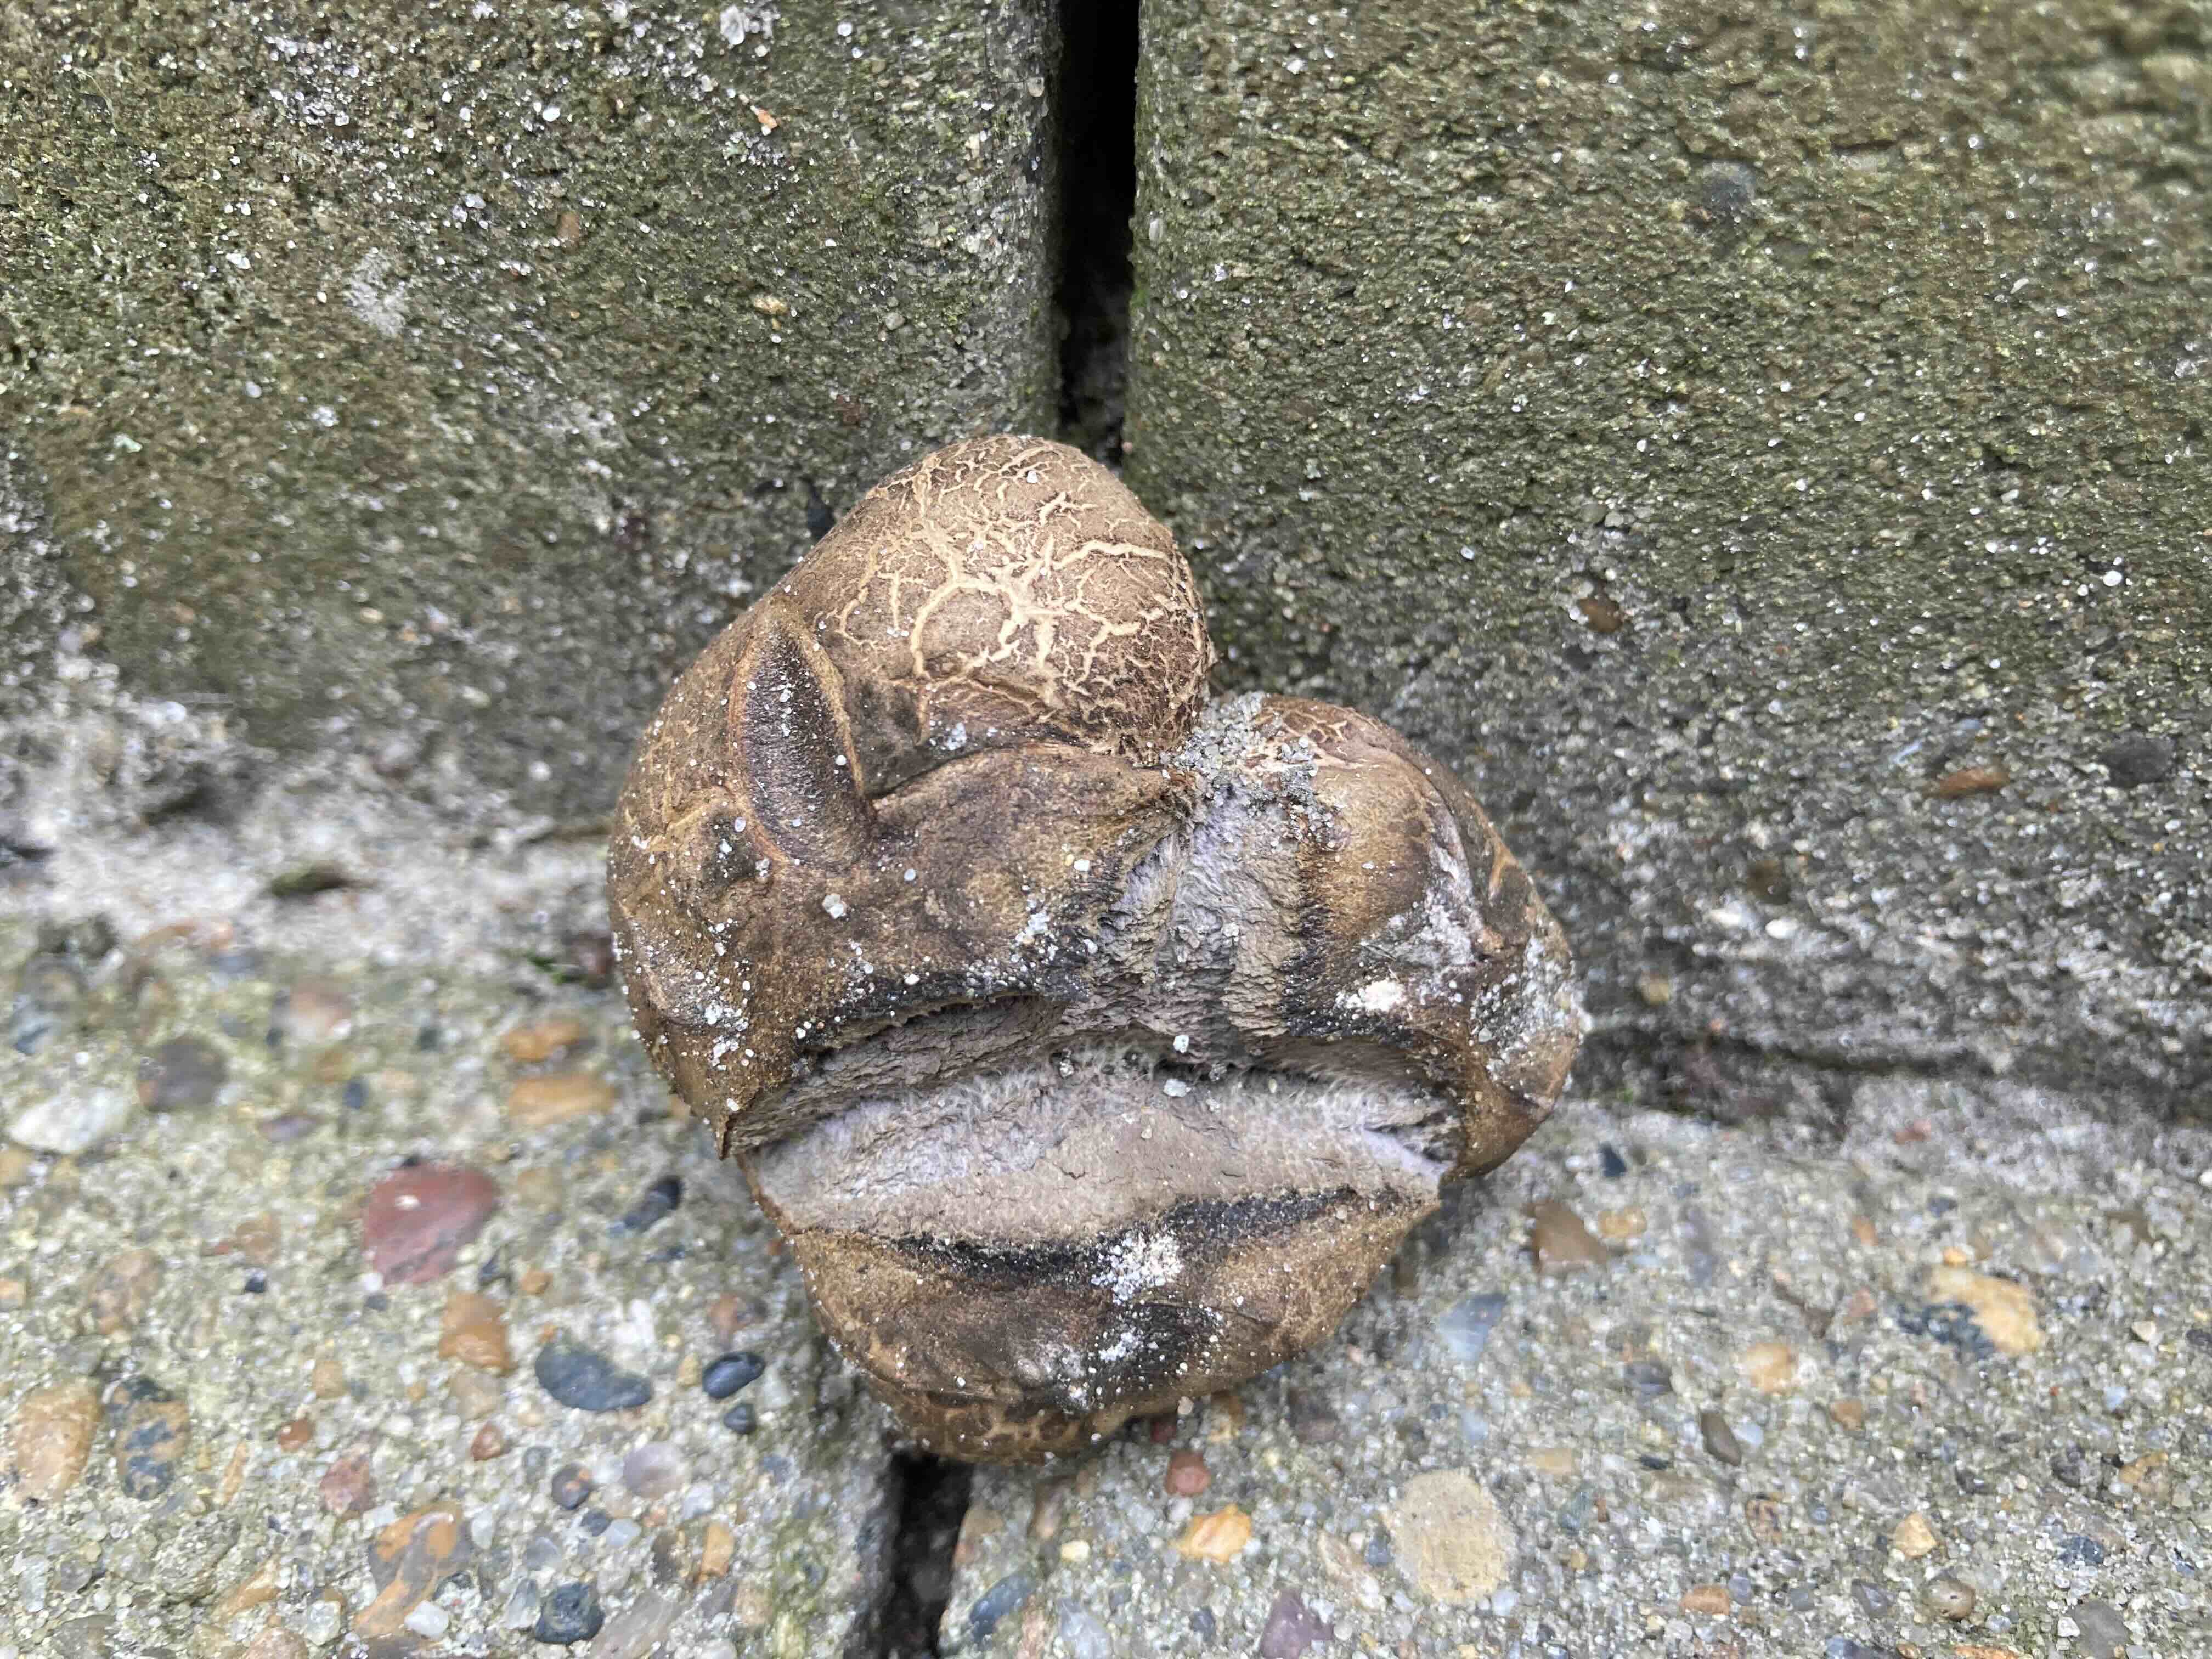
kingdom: Fungi
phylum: Basidiomycota
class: Agaricomycetes
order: Boletales
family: Sclerodermataceae
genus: Scleroderma
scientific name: Scleroderma bovista
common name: bovist-bruskbold
